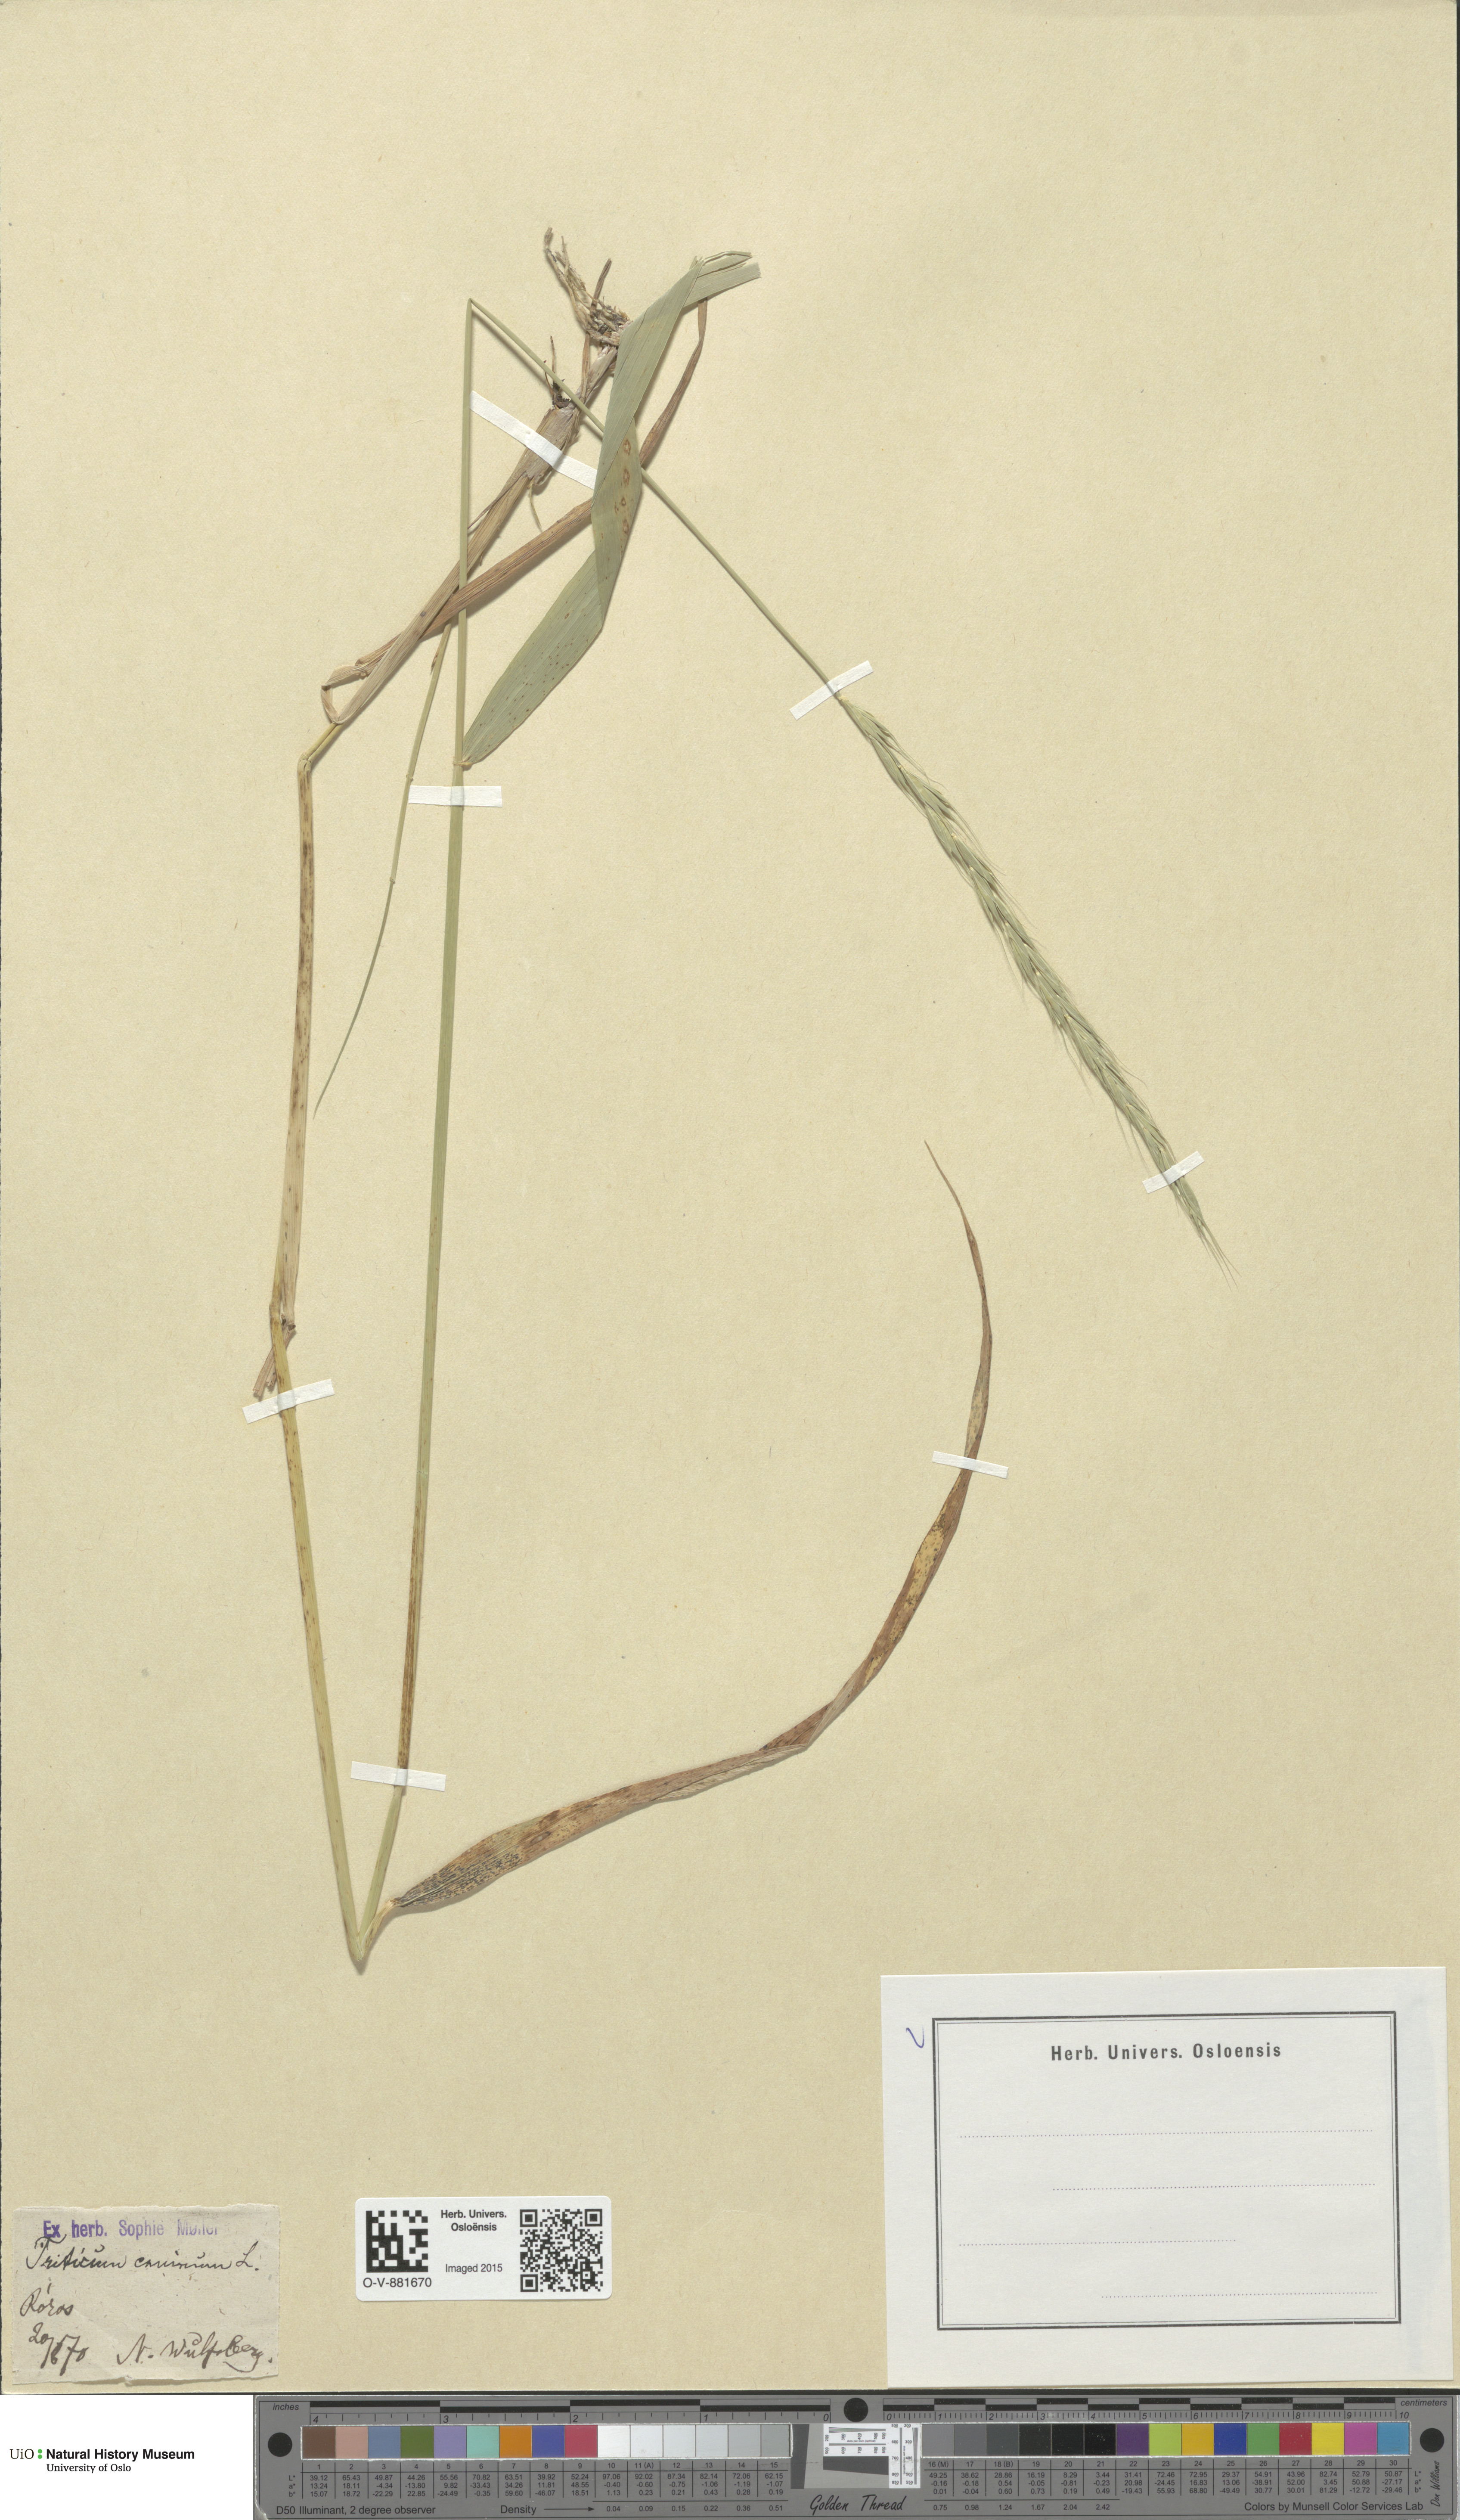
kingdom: Plantae
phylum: Tracheophyta
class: Liliopsida
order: Poales
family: Poaceae
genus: Elymus
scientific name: Elymus caninus
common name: Bearded couch
